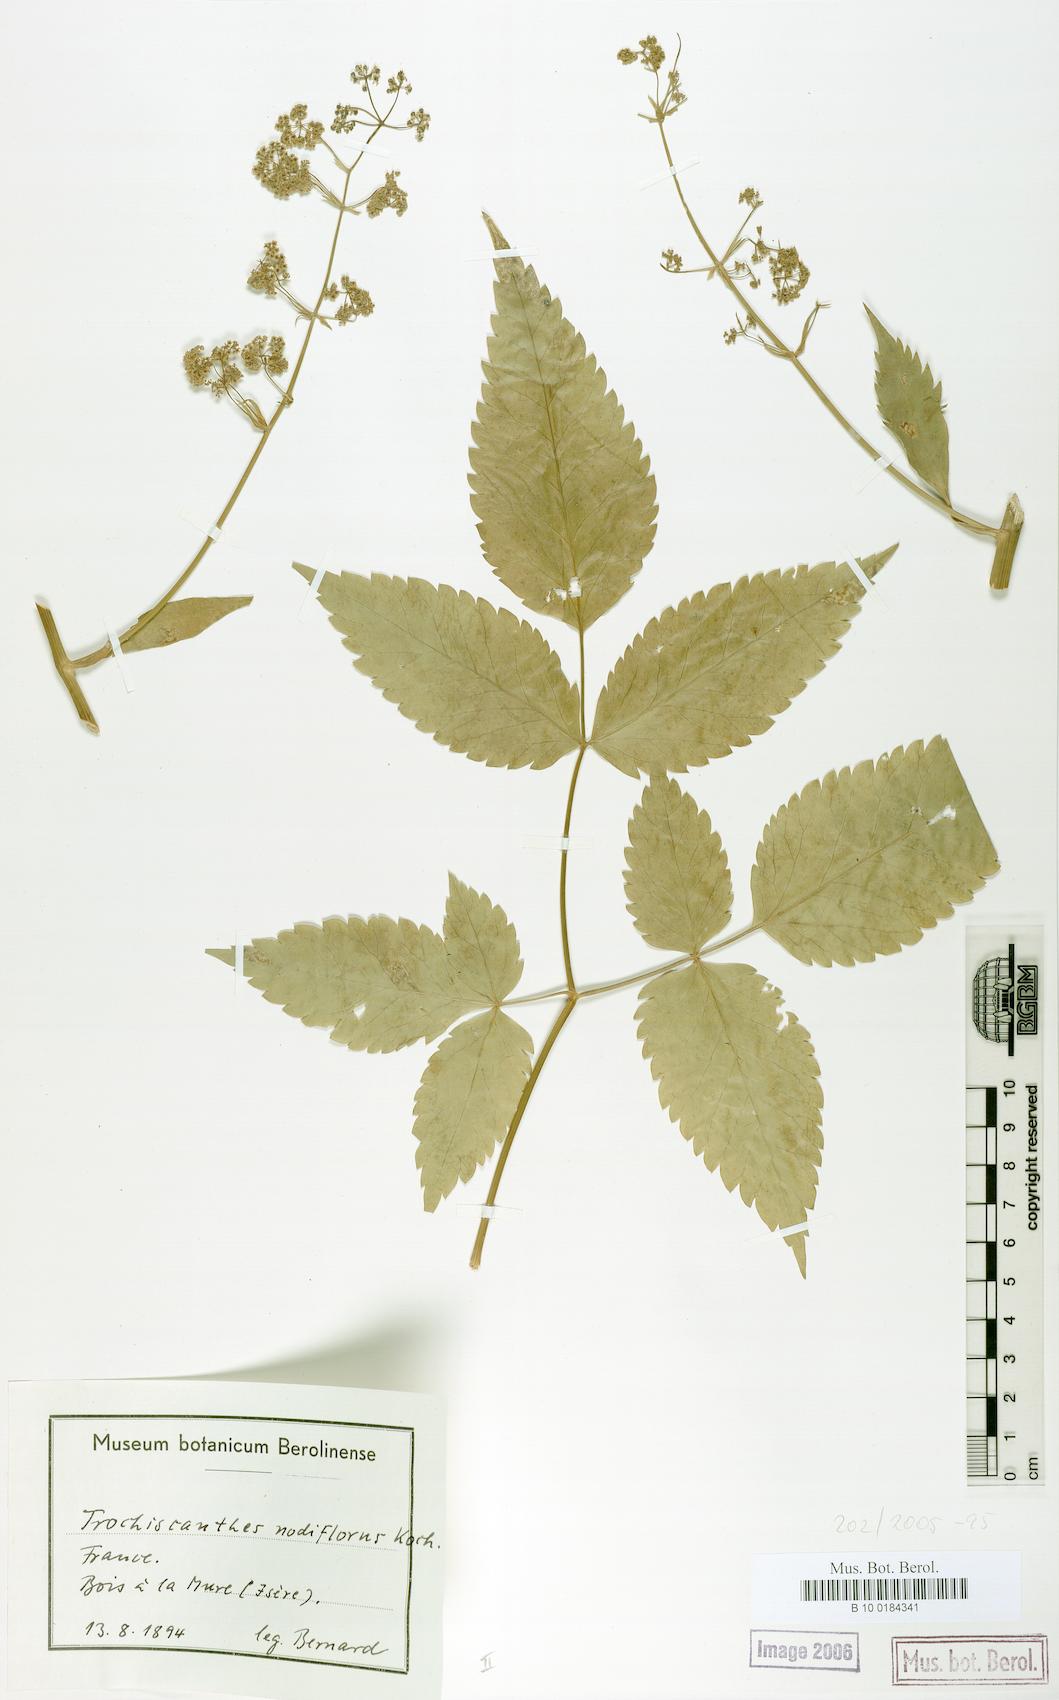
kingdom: Plantae
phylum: Tracheophyta
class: Magnoliopsida
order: Apiales
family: Apiaceae
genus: Trochiscanthes
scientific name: Trochiscanthes nodiflora
